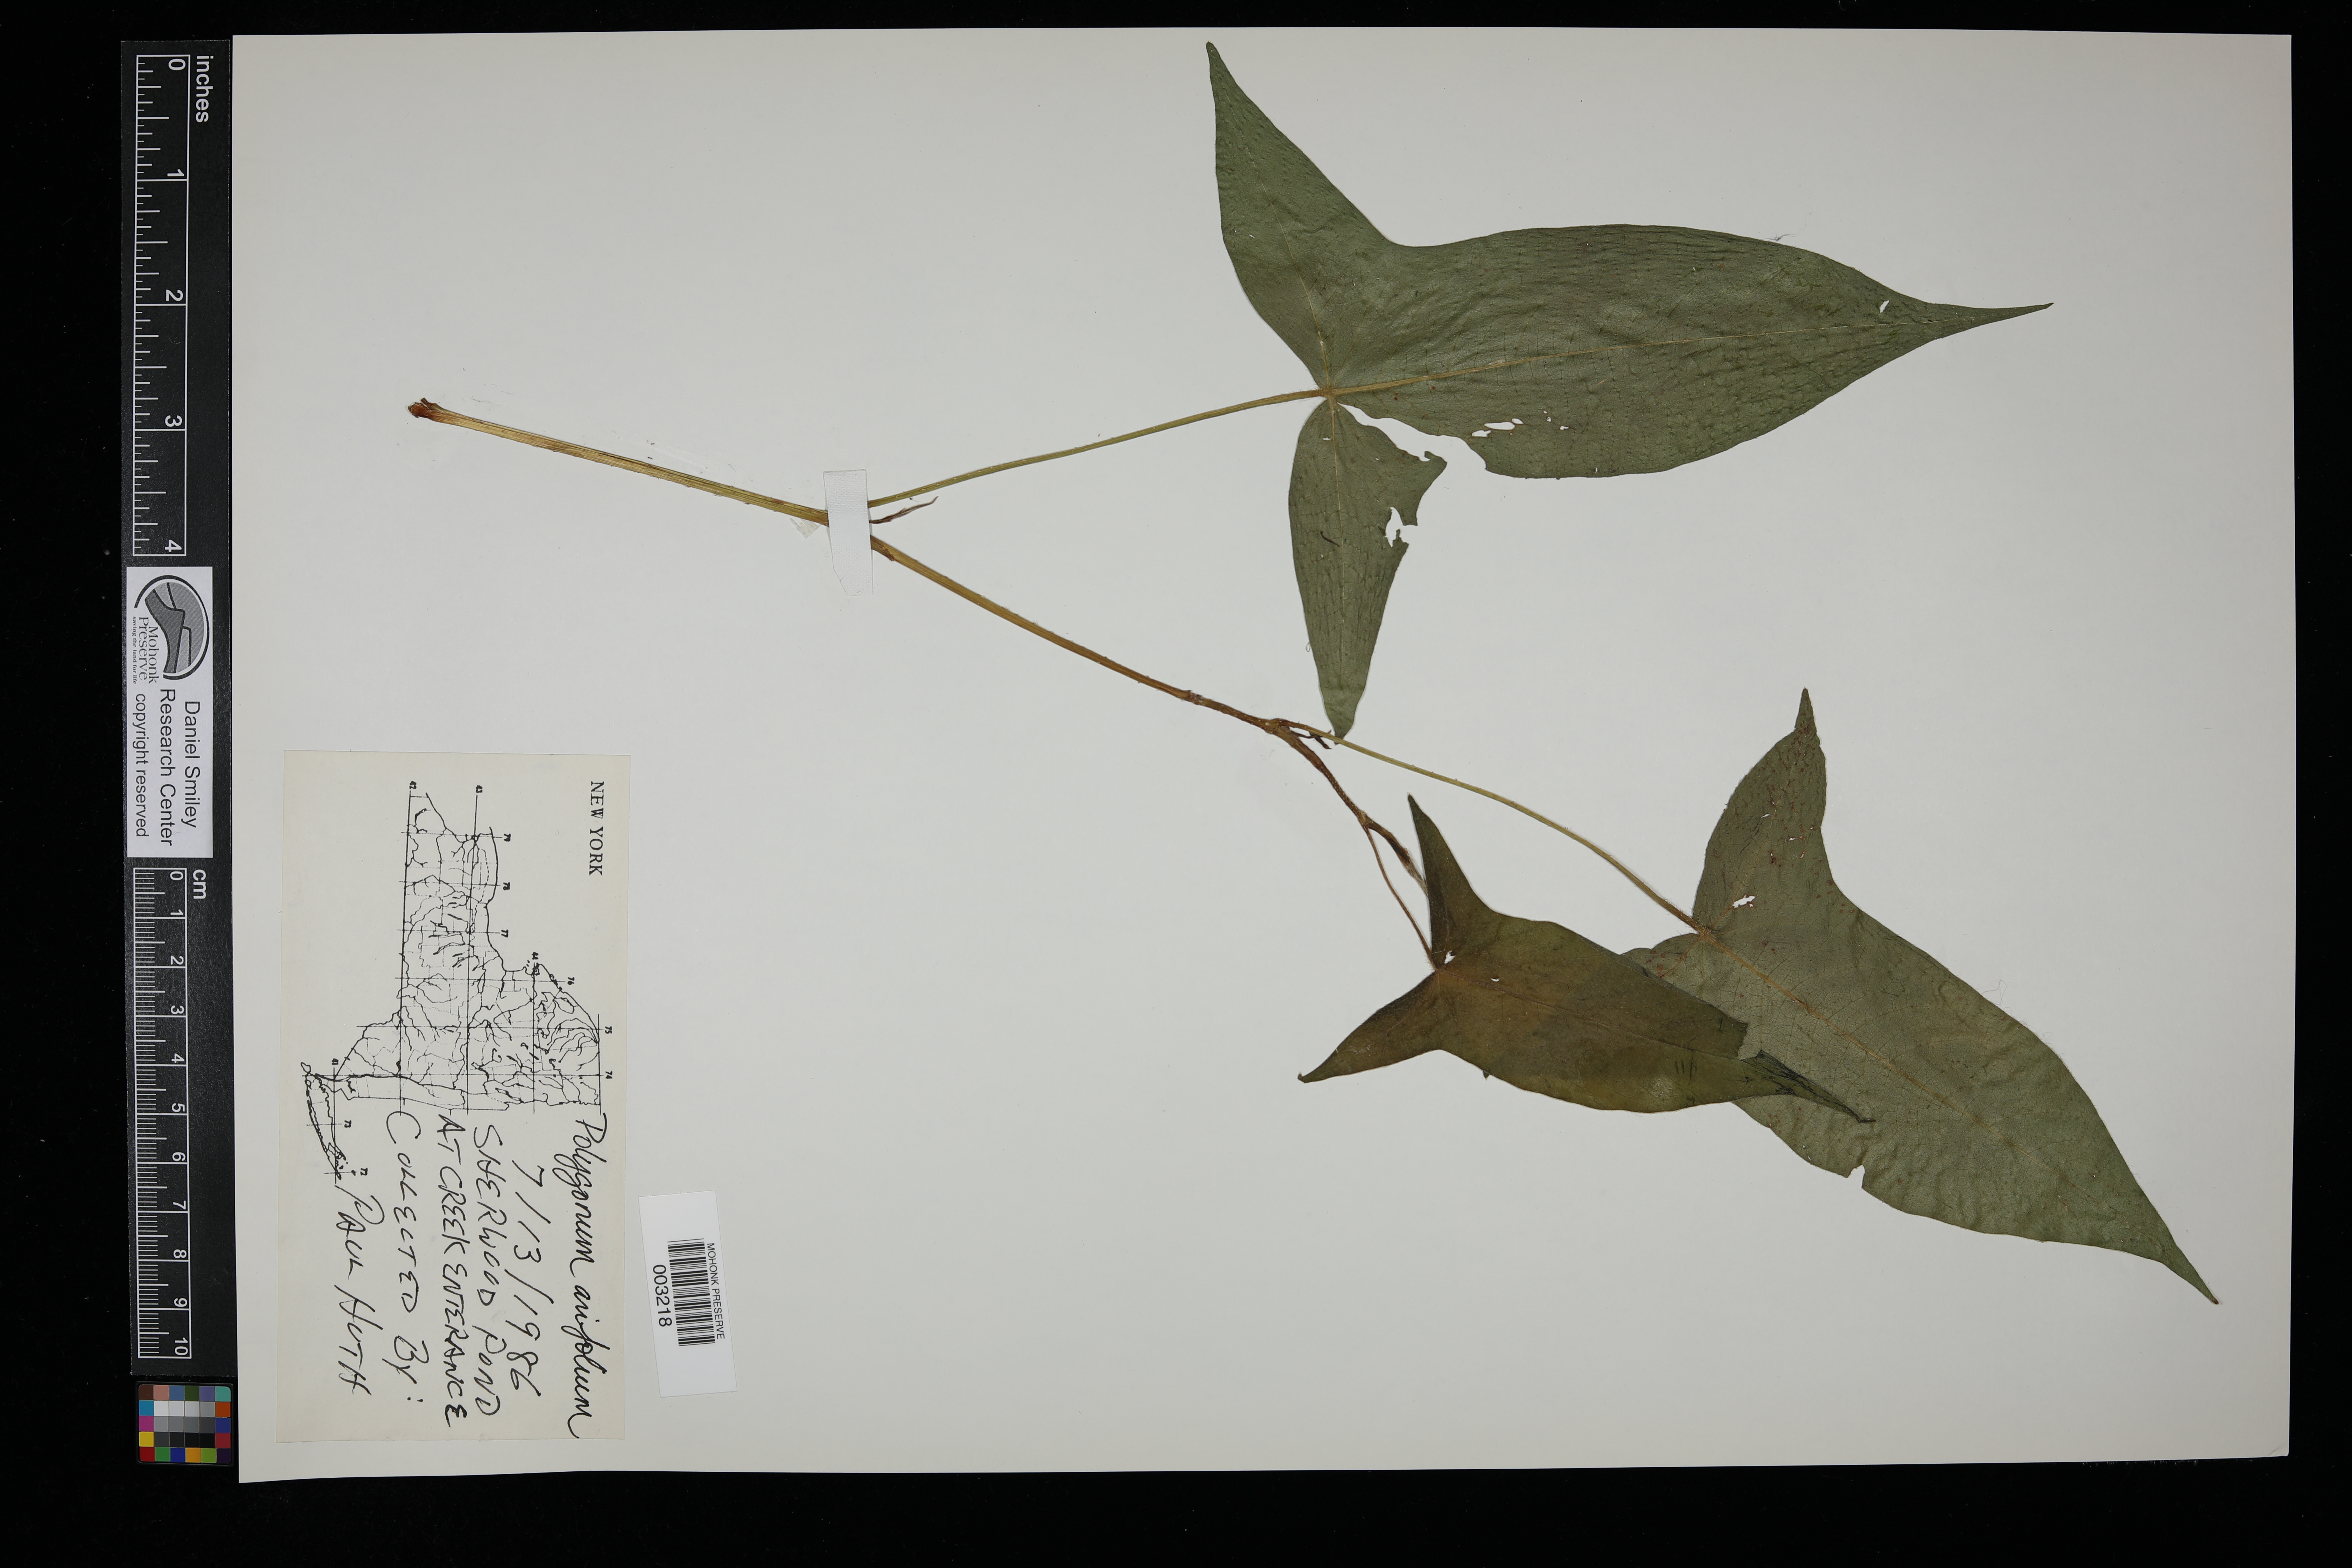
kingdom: Plantae
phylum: Tracheophyta
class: Magnoliopsida
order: Dipsacales
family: Viburnaceae
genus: Viburnum
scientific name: Viburnum lantanoides
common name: Hobblebush
